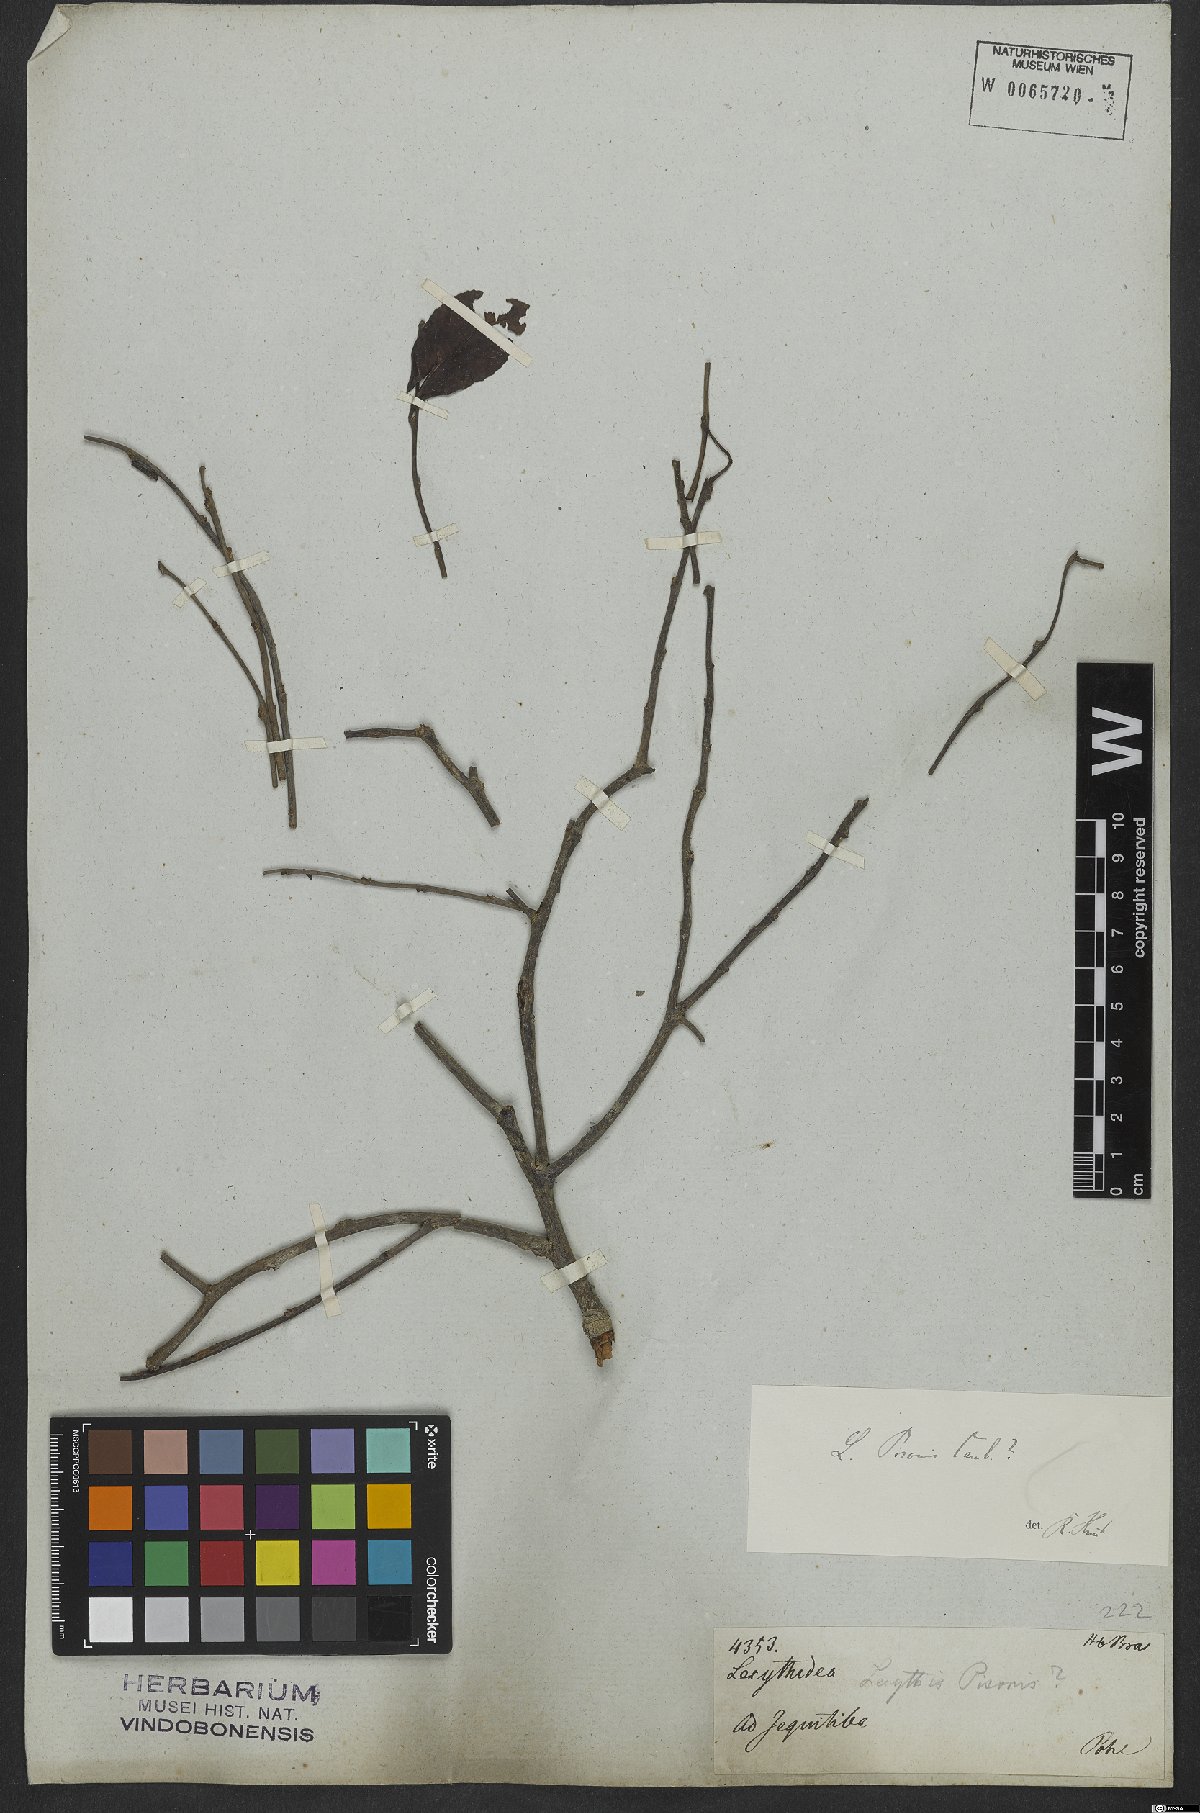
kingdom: Plantae
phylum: Tracheophyta
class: Magnoliopsida
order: Ericales
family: Lecythidaceae
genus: Lecythis
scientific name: Lecythis pisonis
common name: Paradise-nut
